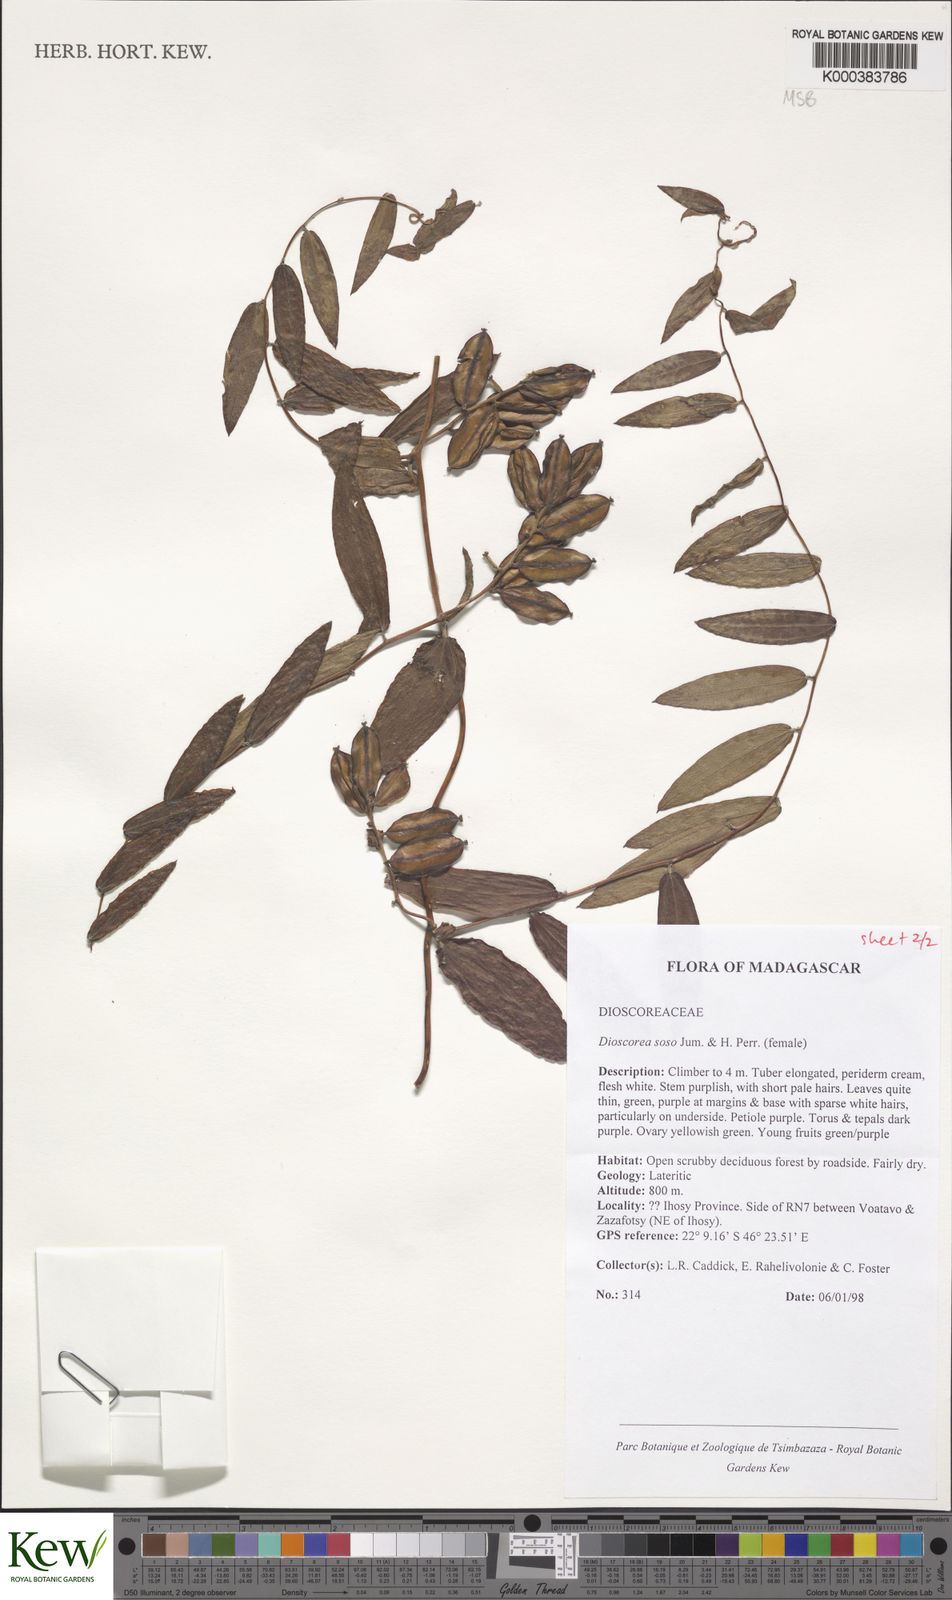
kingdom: Plantae
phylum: Tracheophyta
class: Liliopsida
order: Dioscoreales
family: Dioscoreaceae
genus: Dioscorea
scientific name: Dioscorea
